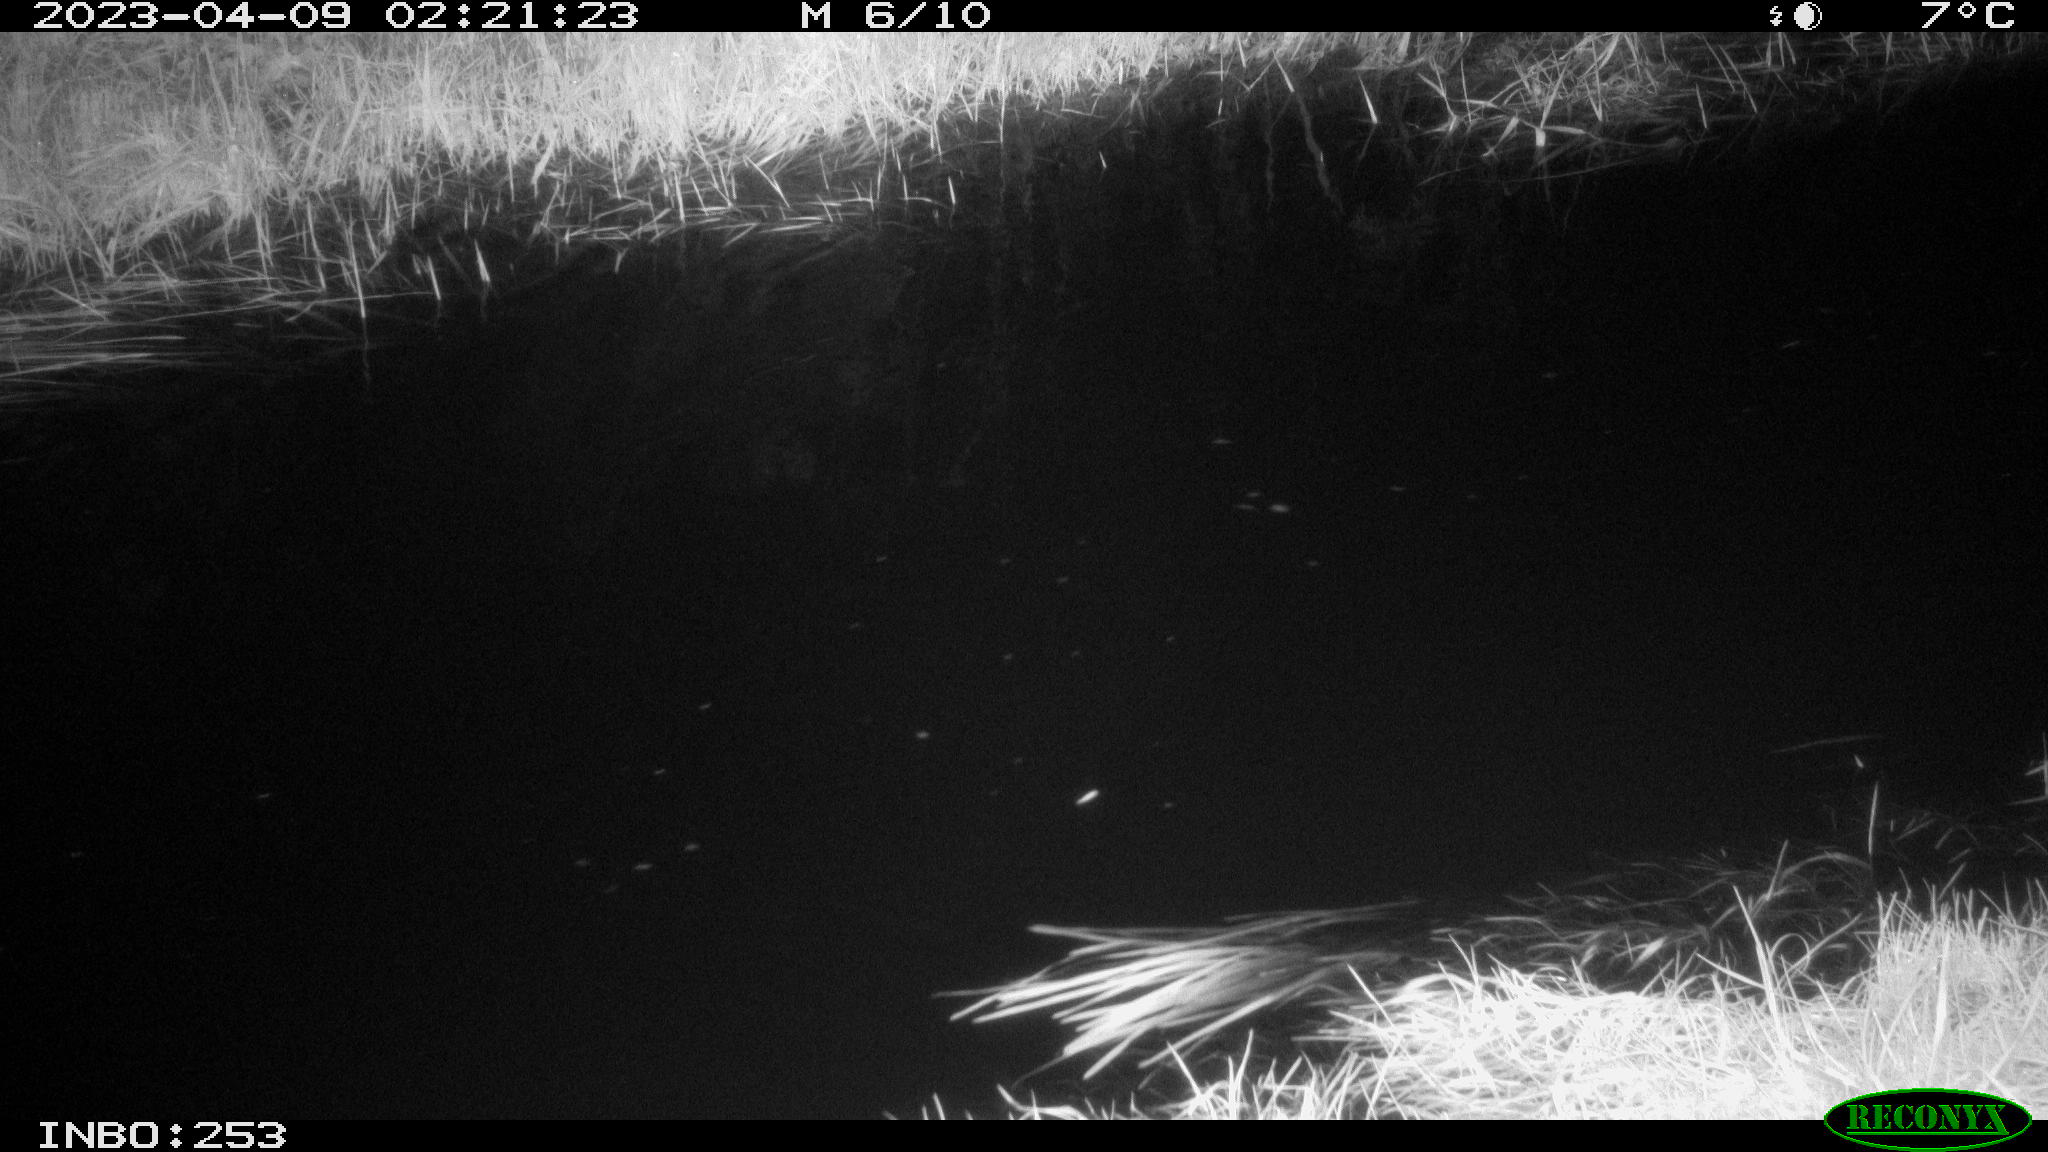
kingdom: Animalia
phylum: Chordata
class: Aves
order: Anseriformes
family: Anatidae
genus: Anas
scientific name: Anas
